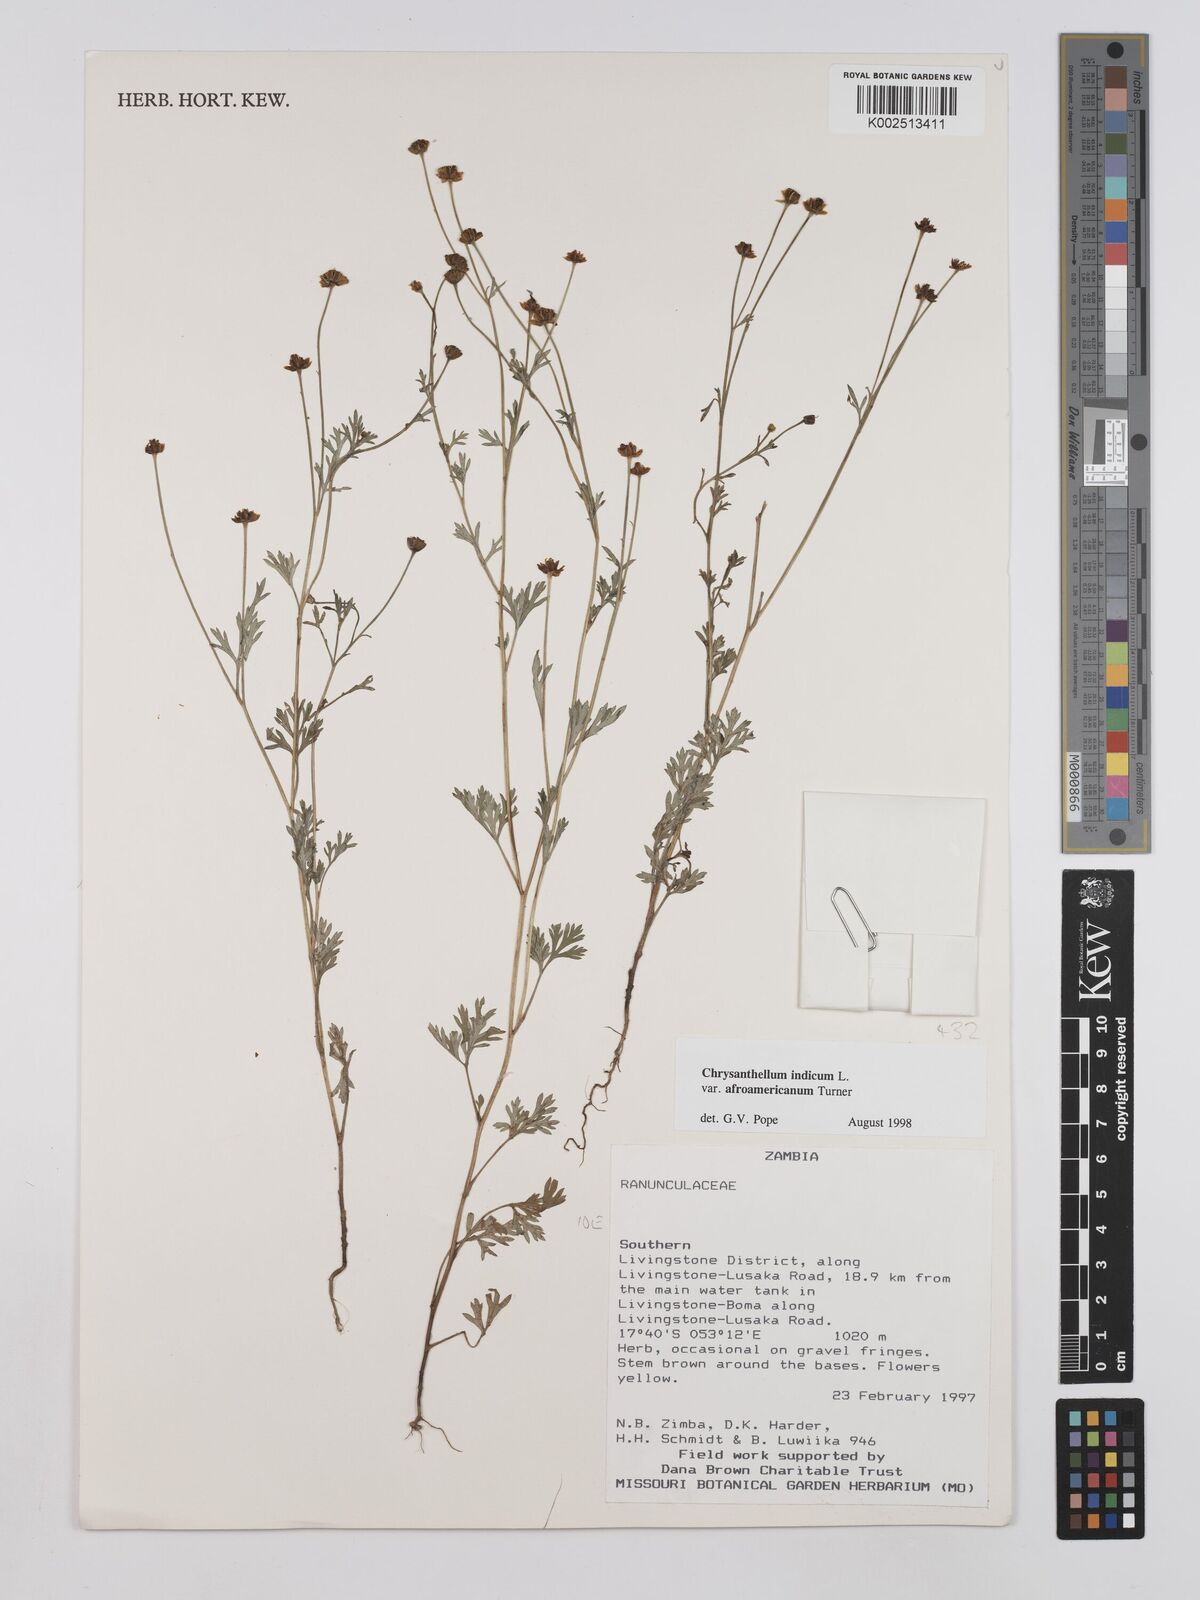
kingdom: Plantae
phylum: Tracheophyta
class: Magnoliopsida
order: Asterales
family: Asteraceae
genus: Chrysanthellum
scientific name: Chrysanthellum indicum
